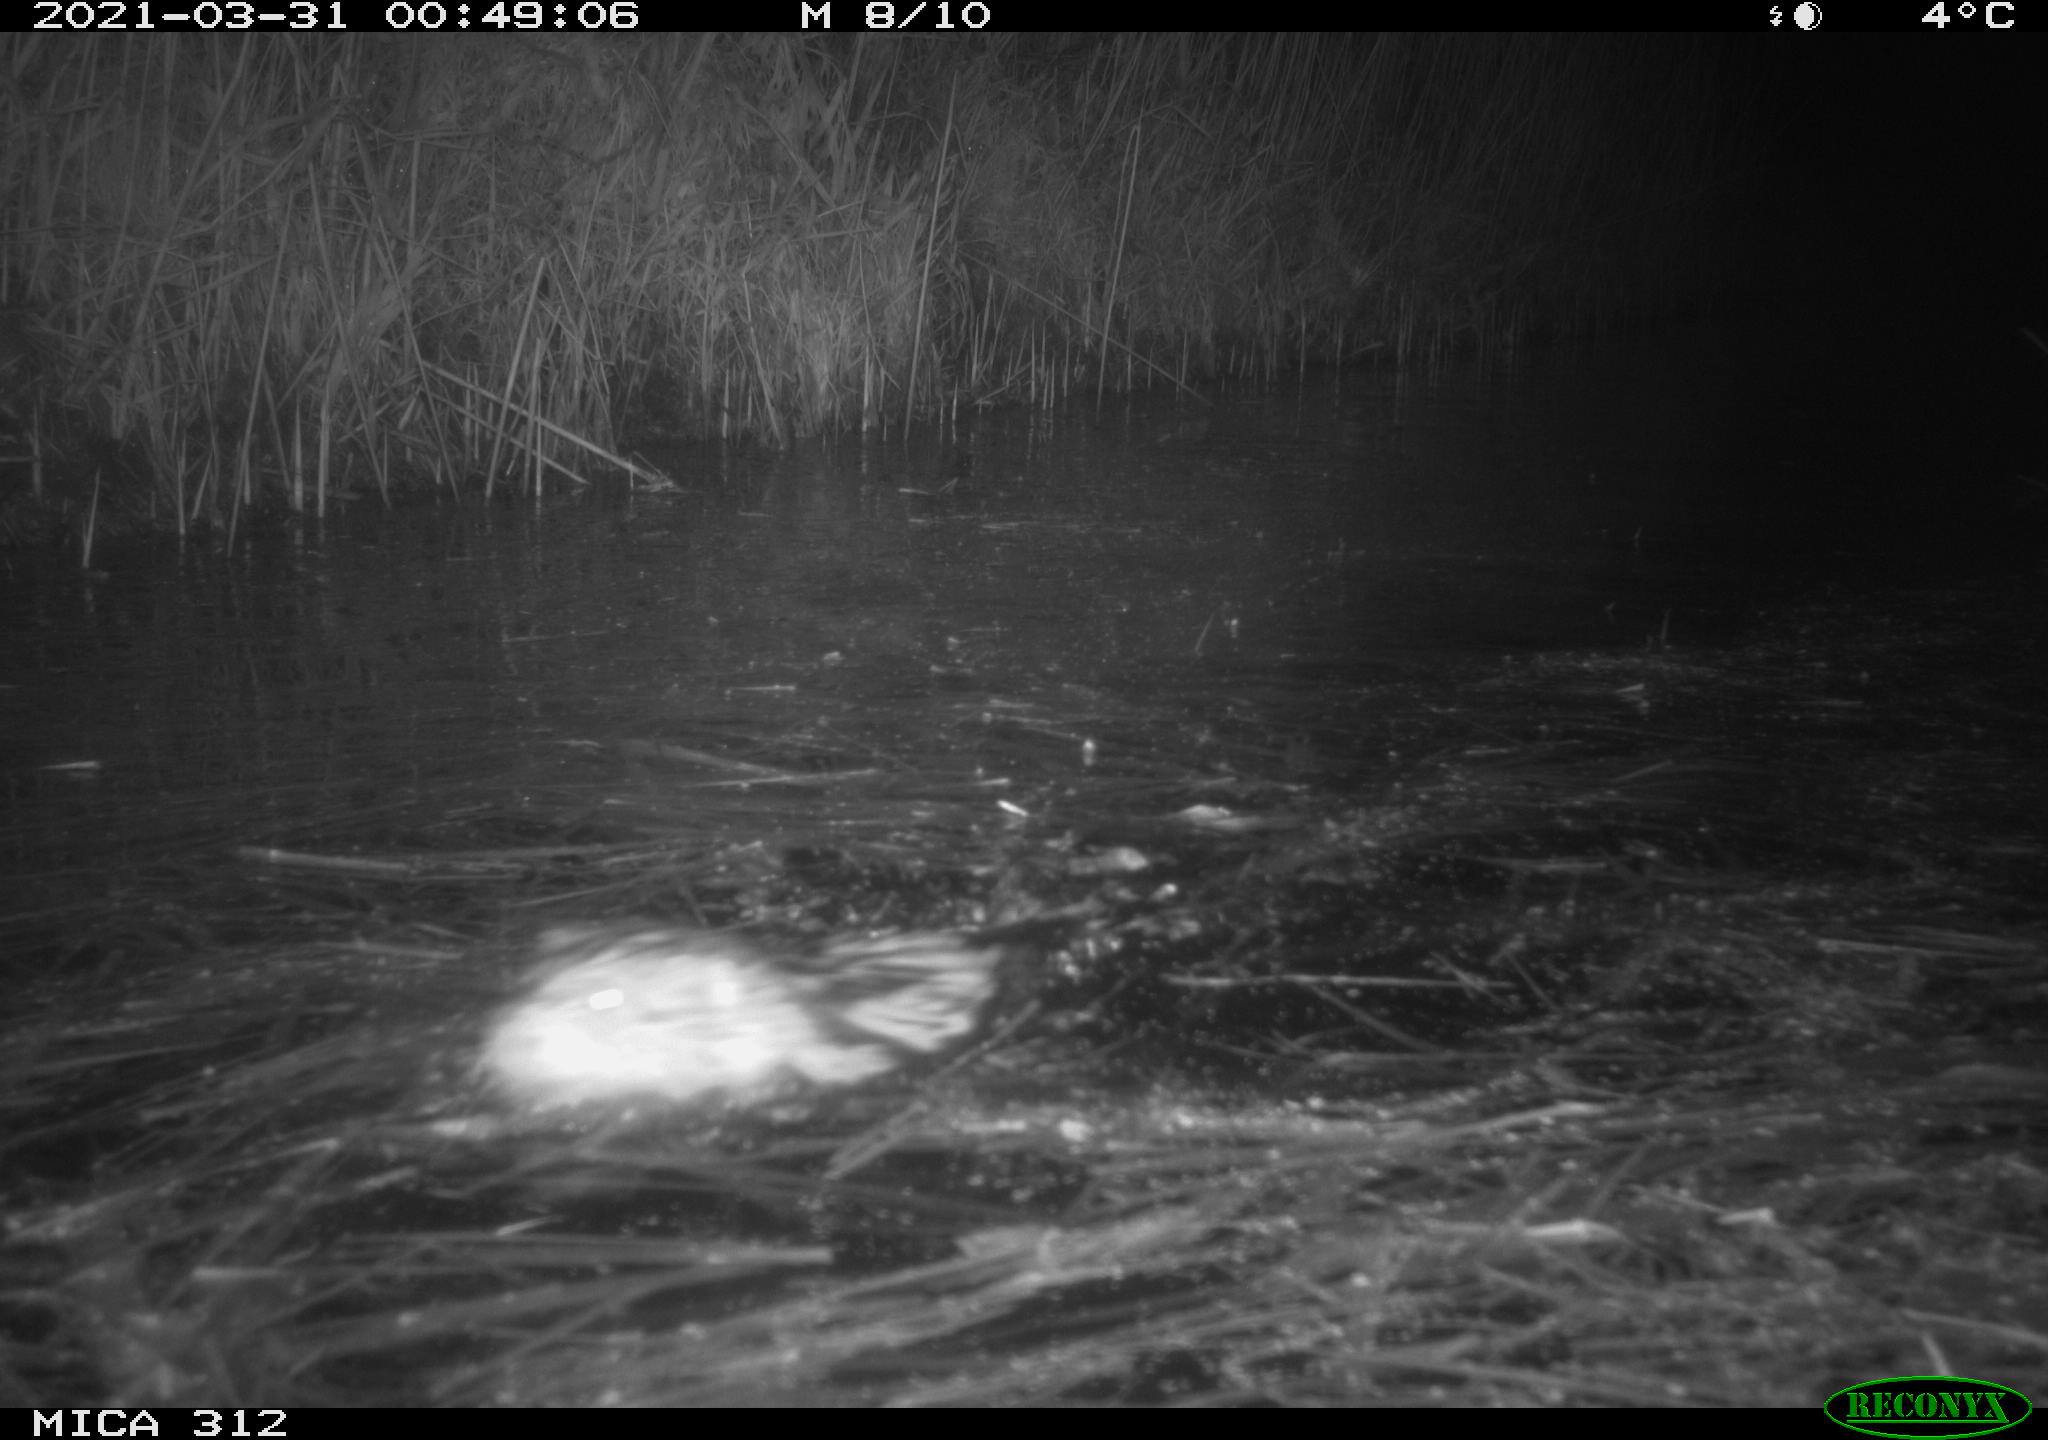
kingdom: Animalia
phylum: Chordata
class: Mammalia
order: Rodentia
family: Cricetidae
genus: Ondatra
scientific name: Ondatra zibethicus
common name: Muskrat
